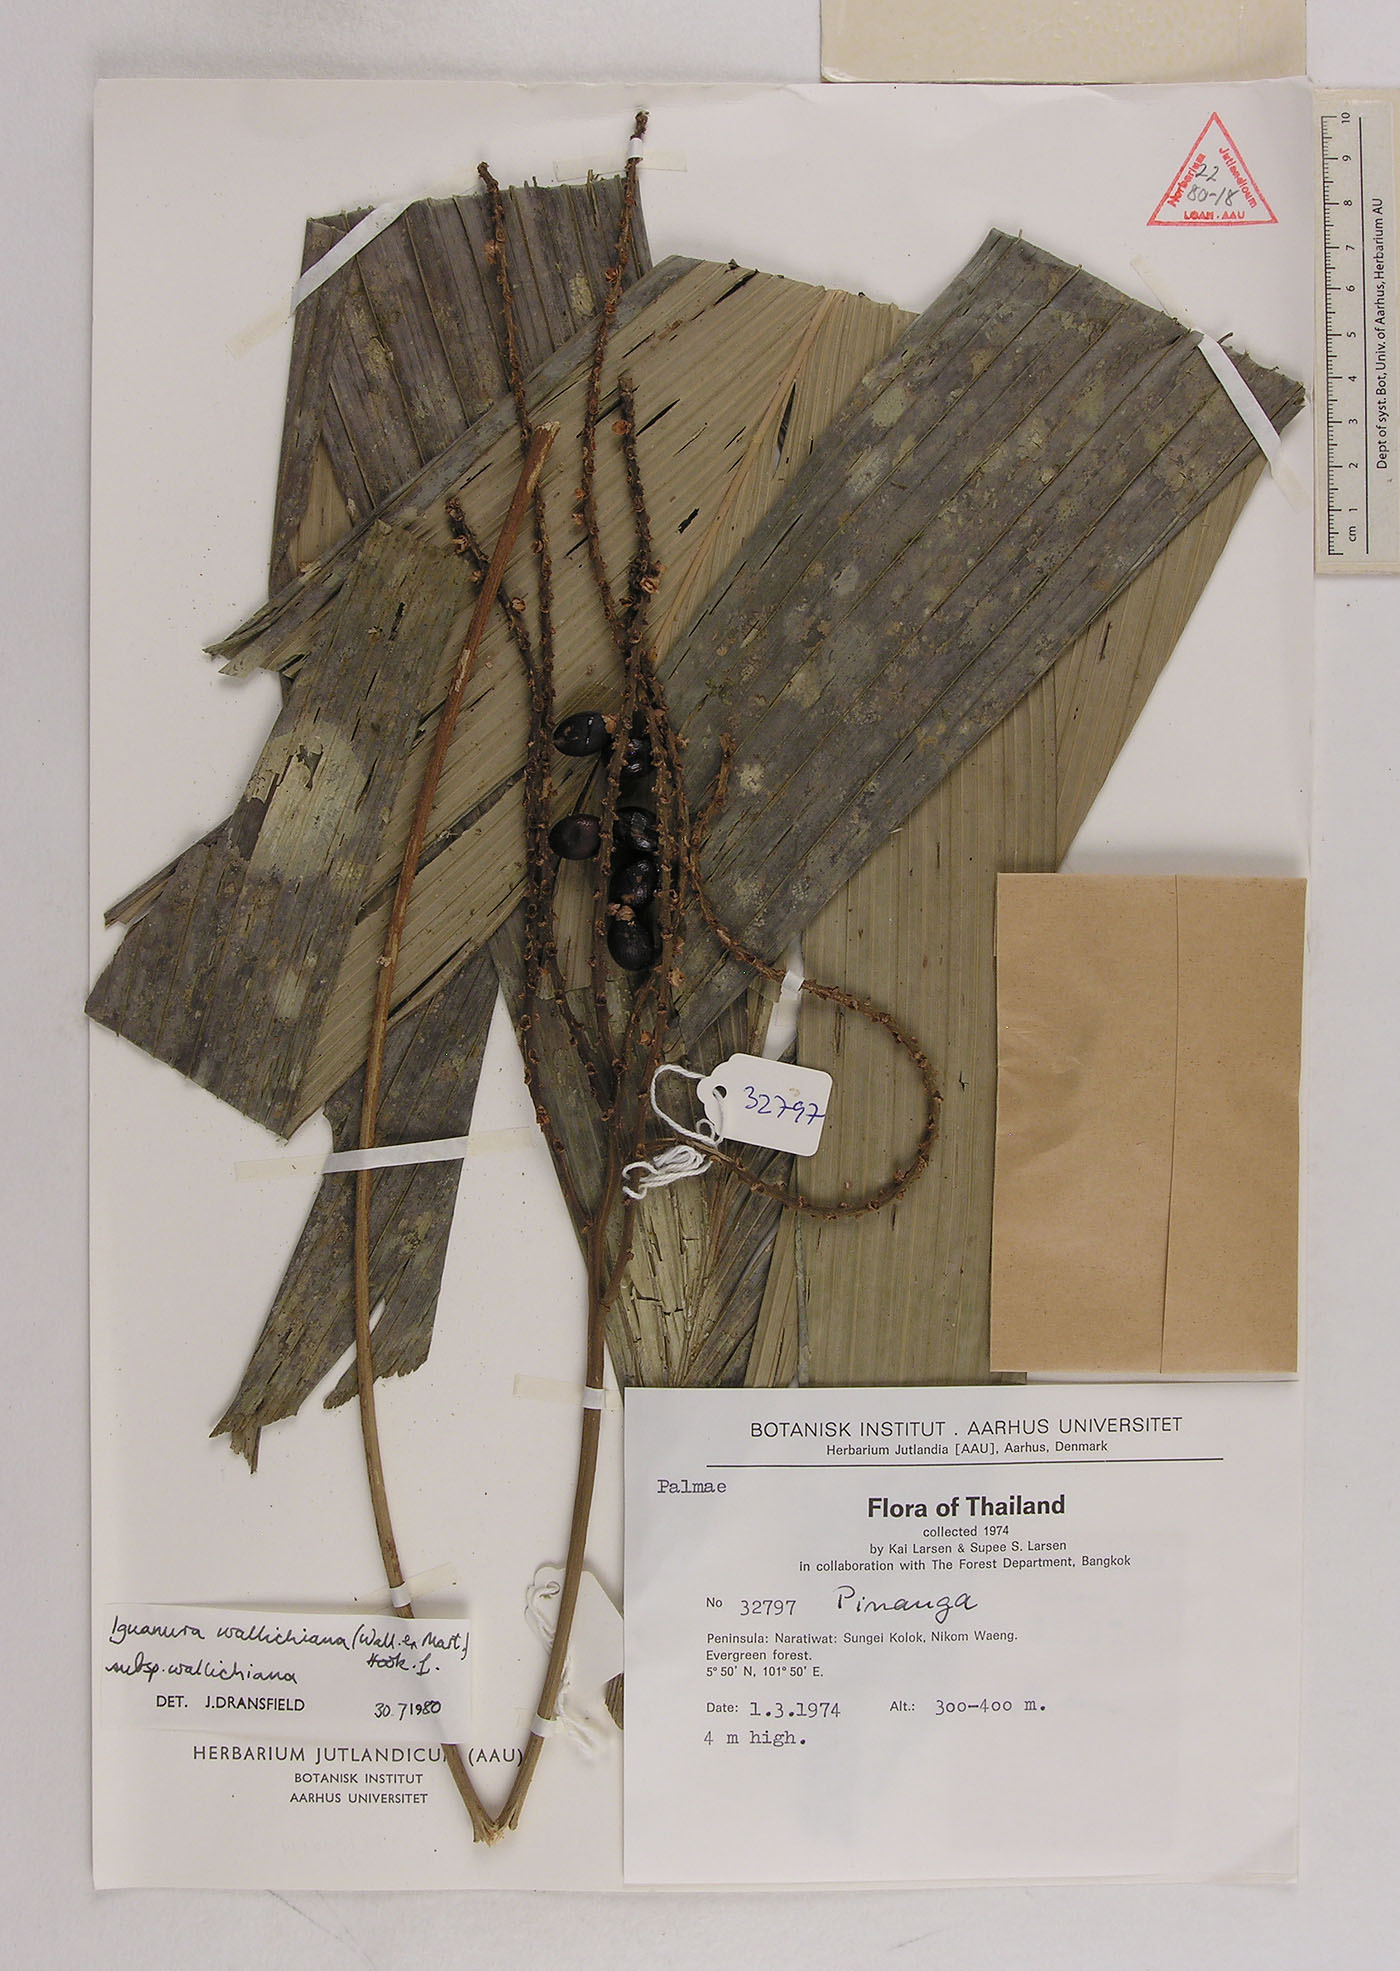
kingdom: Plantae
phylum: Tracheophyta
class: Liliopsida
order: Arecales
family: Arecaceae
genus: Iguanura
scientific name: Iguanura wallichiana
